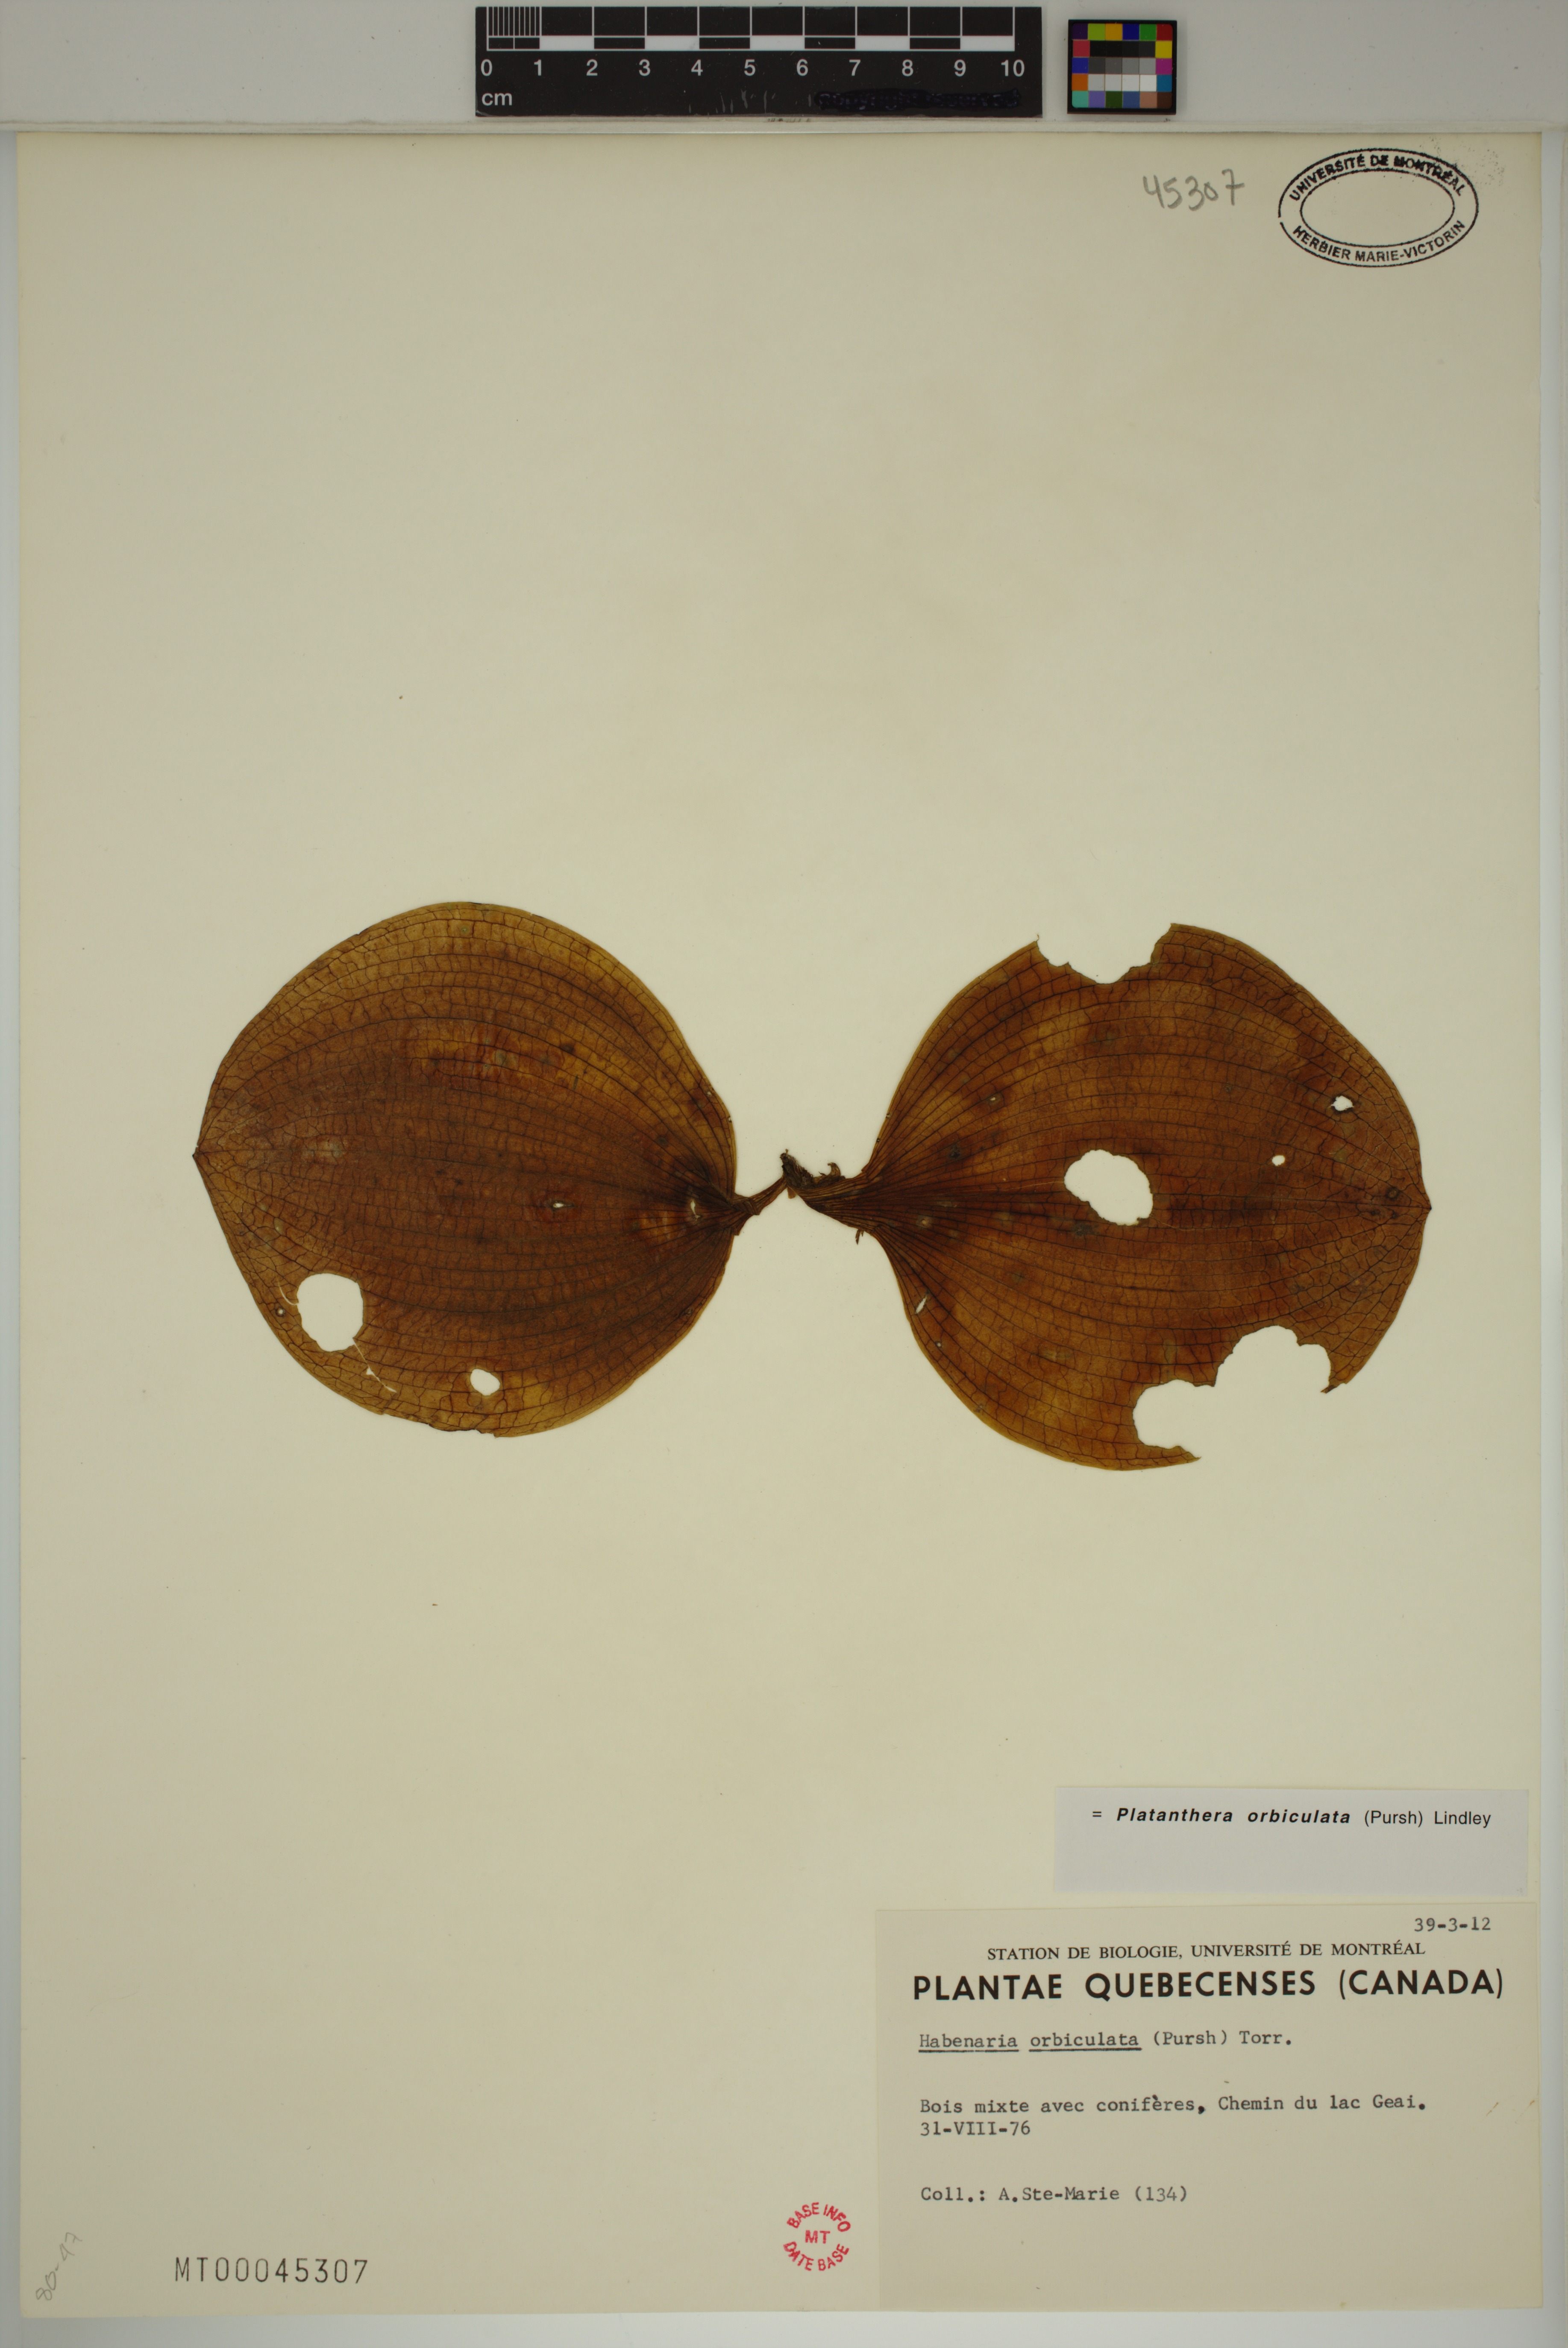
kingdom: Plantae
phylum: Tracheophyta
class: Liliopsida
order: Asparagales
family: Orchidaceae
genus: Platanthera
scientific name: Platanthera orbiculata
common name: Large round-leaved orchid
